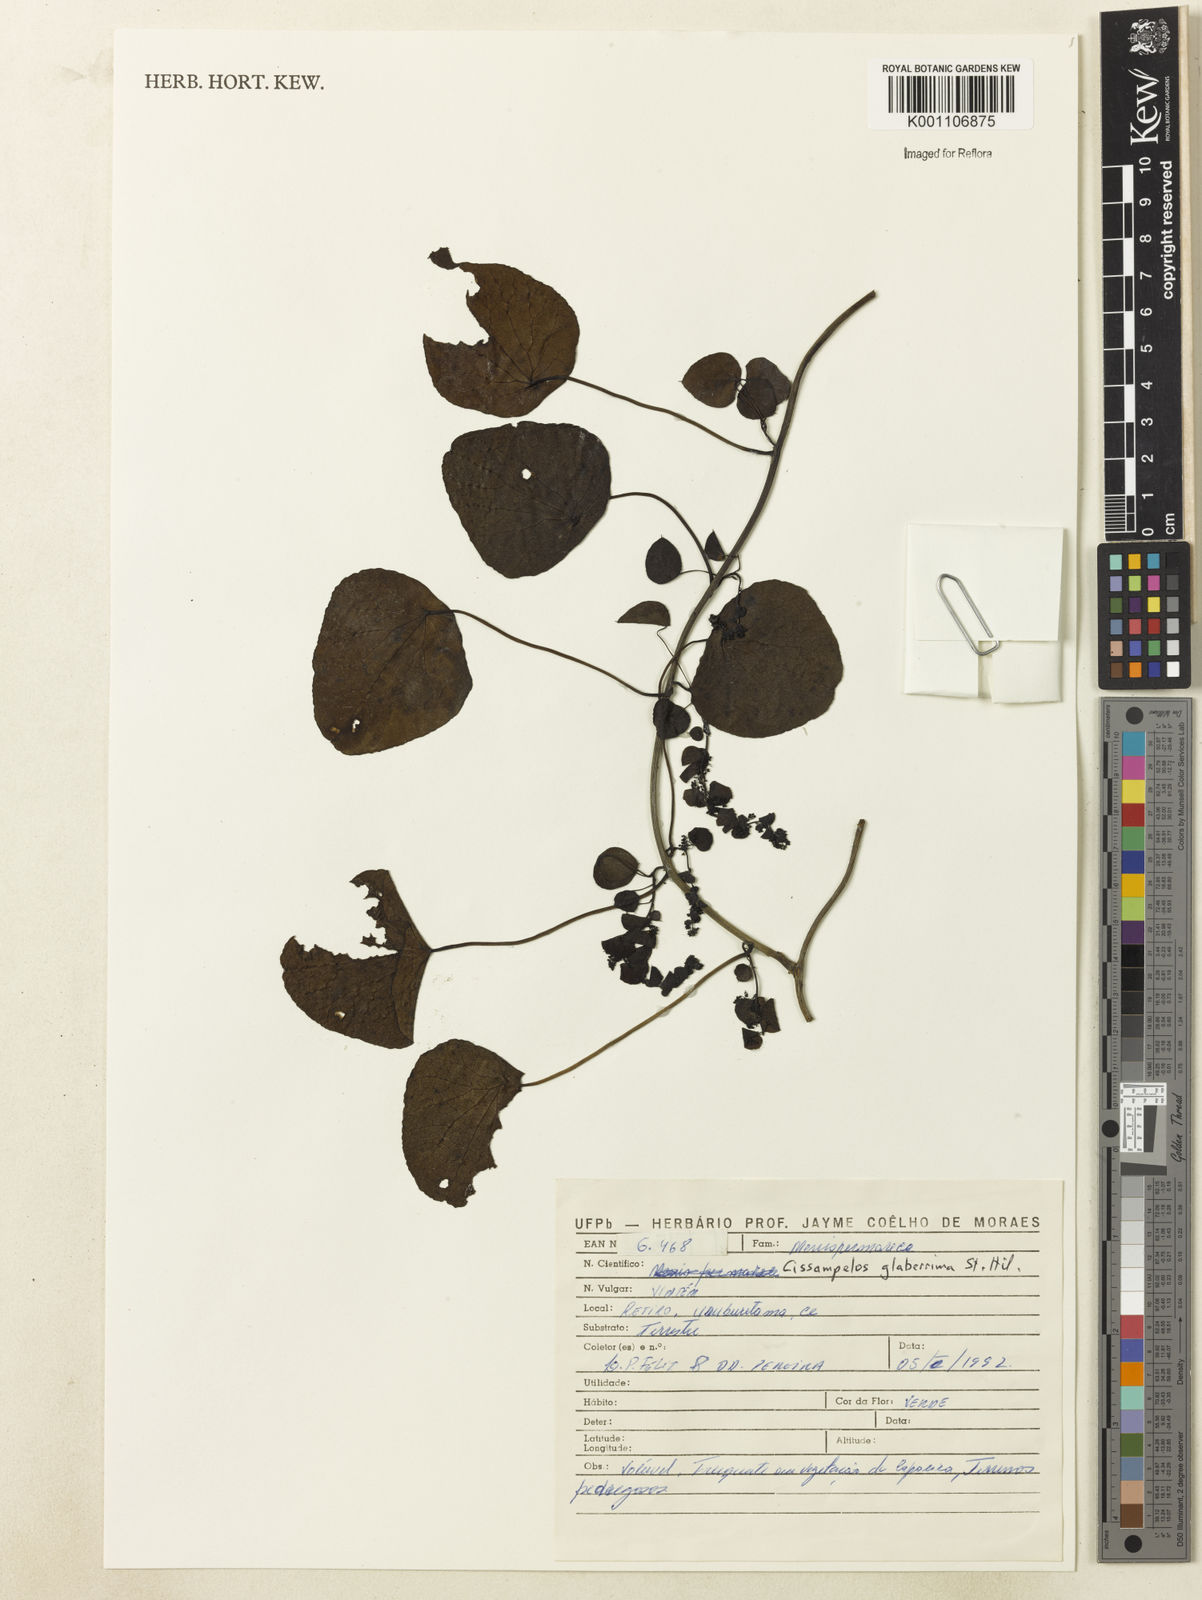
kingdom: Plantae
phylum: Tracheophyta
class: Magnoliopsida
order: Ranunculales
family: Menispermaceae
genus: Cissampelos
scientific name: Cissampelos glaberrima
